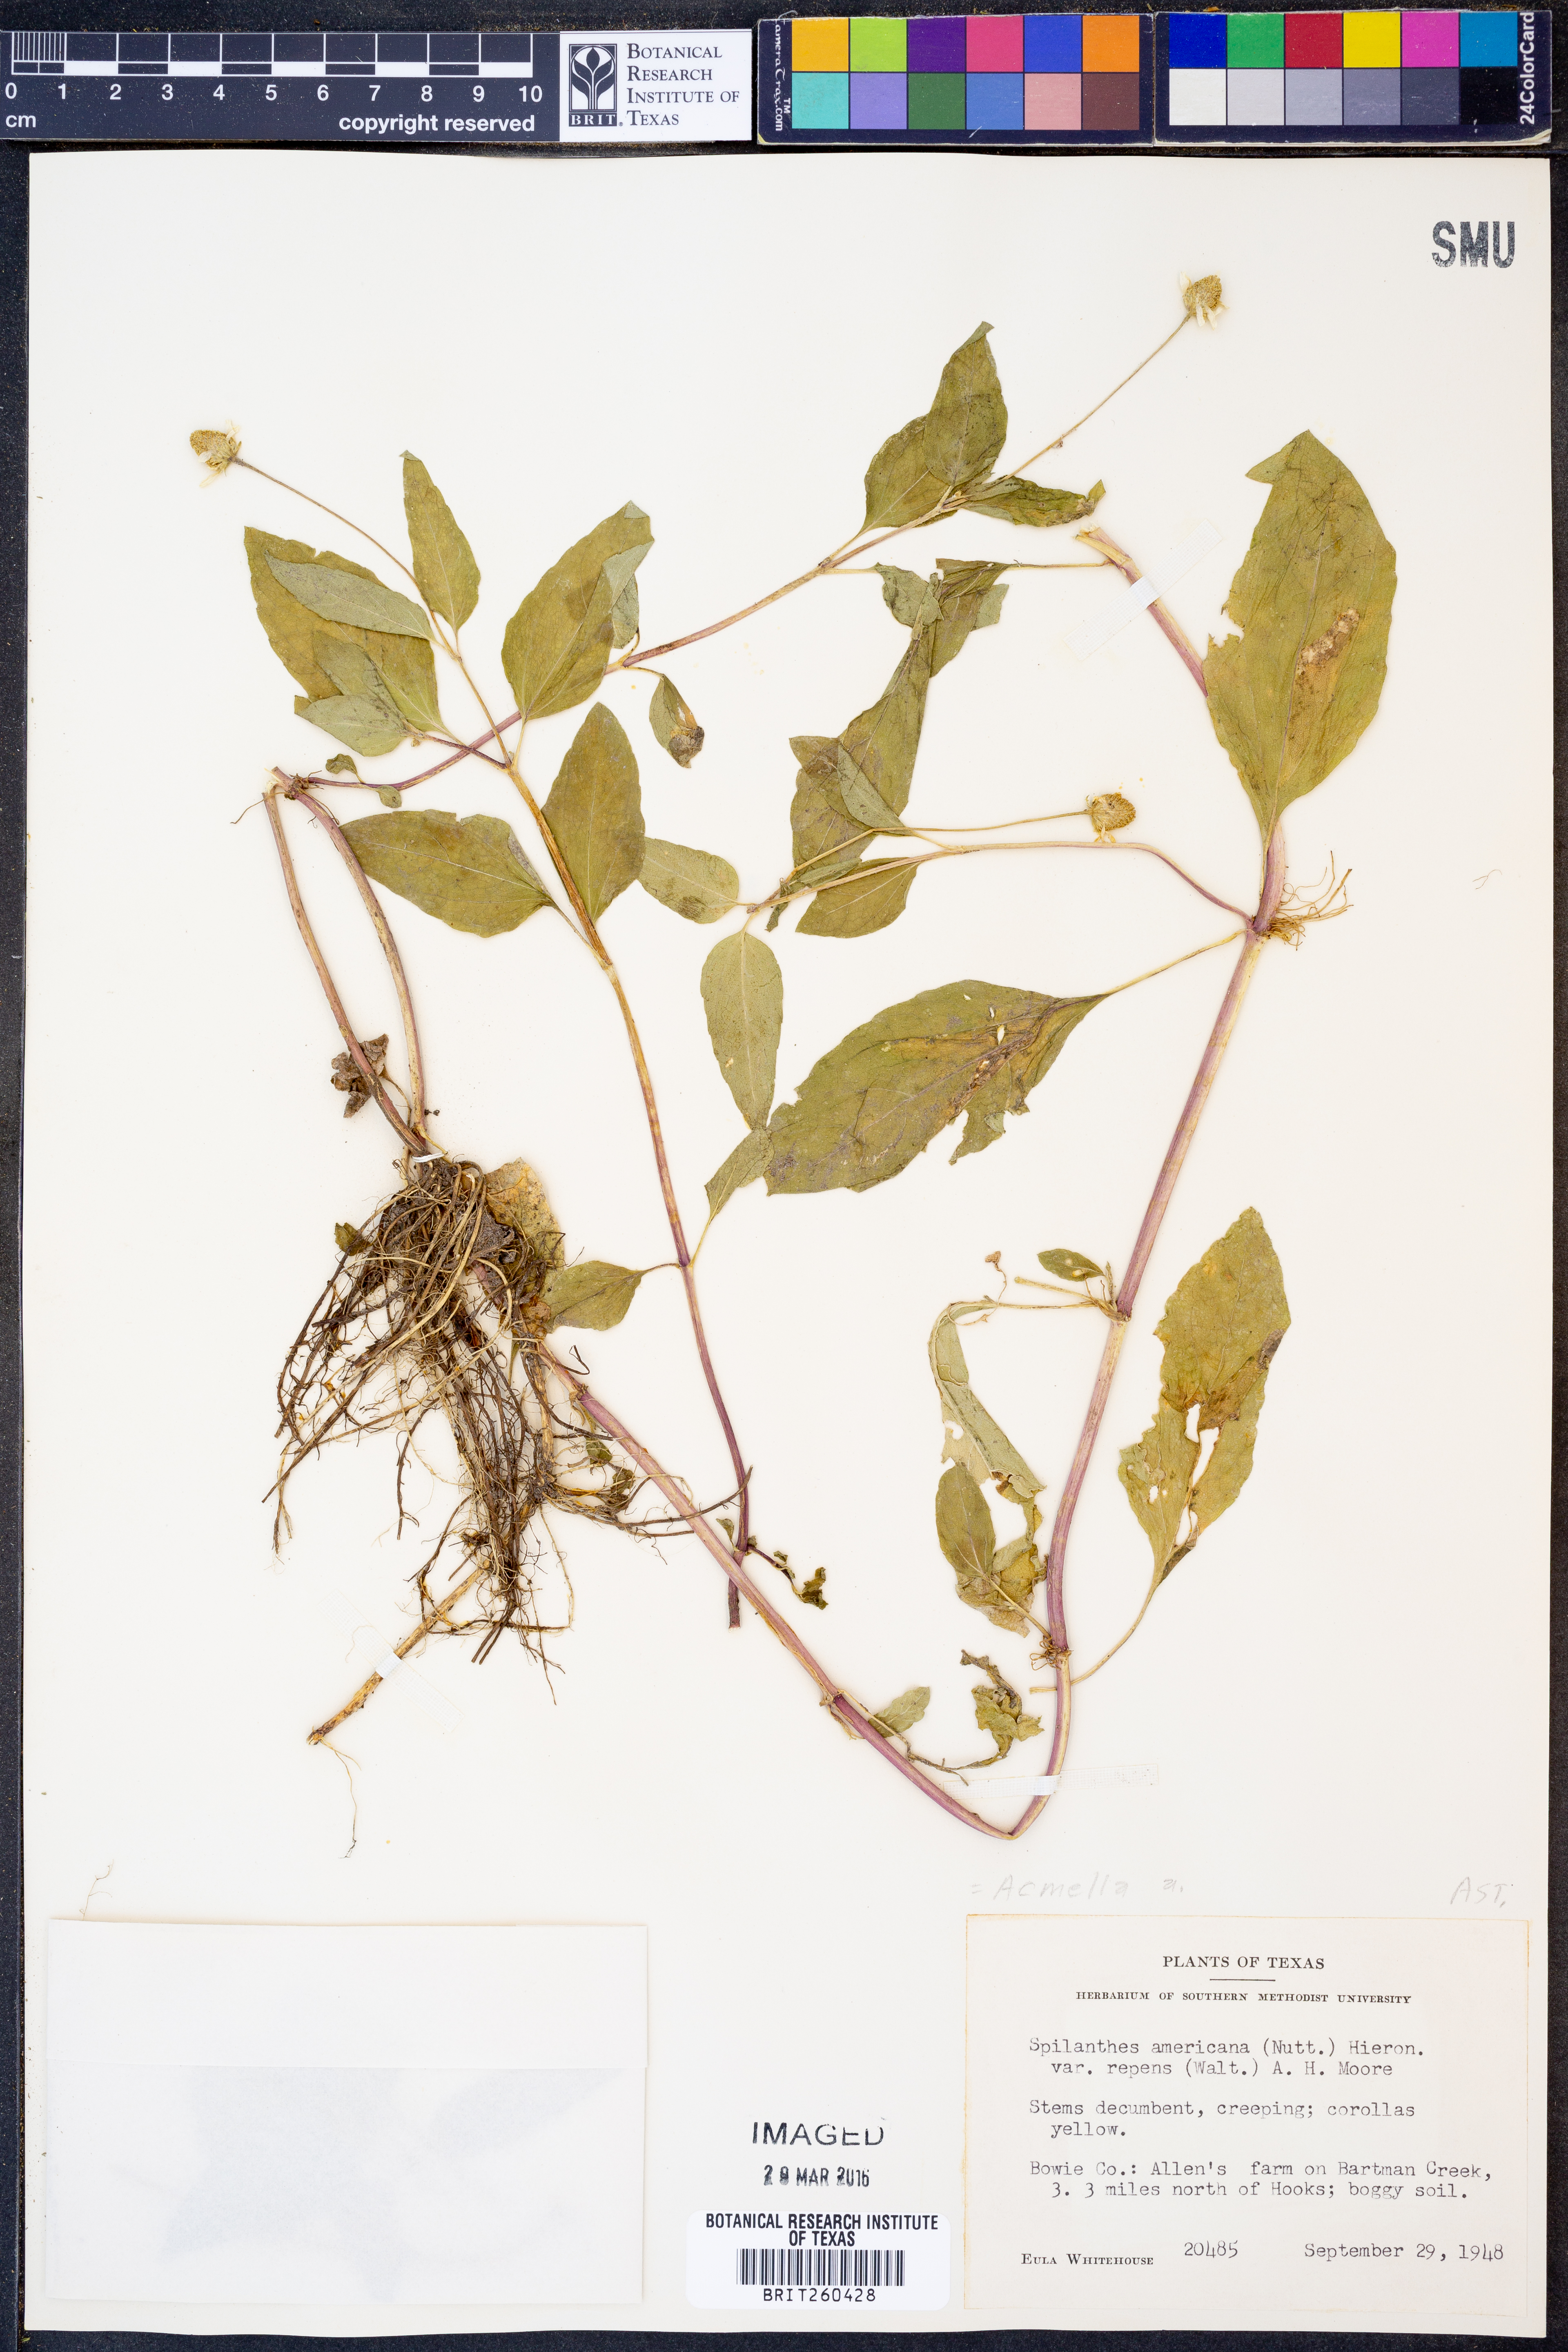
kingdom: Plantae
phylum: Tracheophyta
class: Magnoliopsida
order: Asterales
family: Asteraceae
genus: Acmella
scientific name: Acmella
